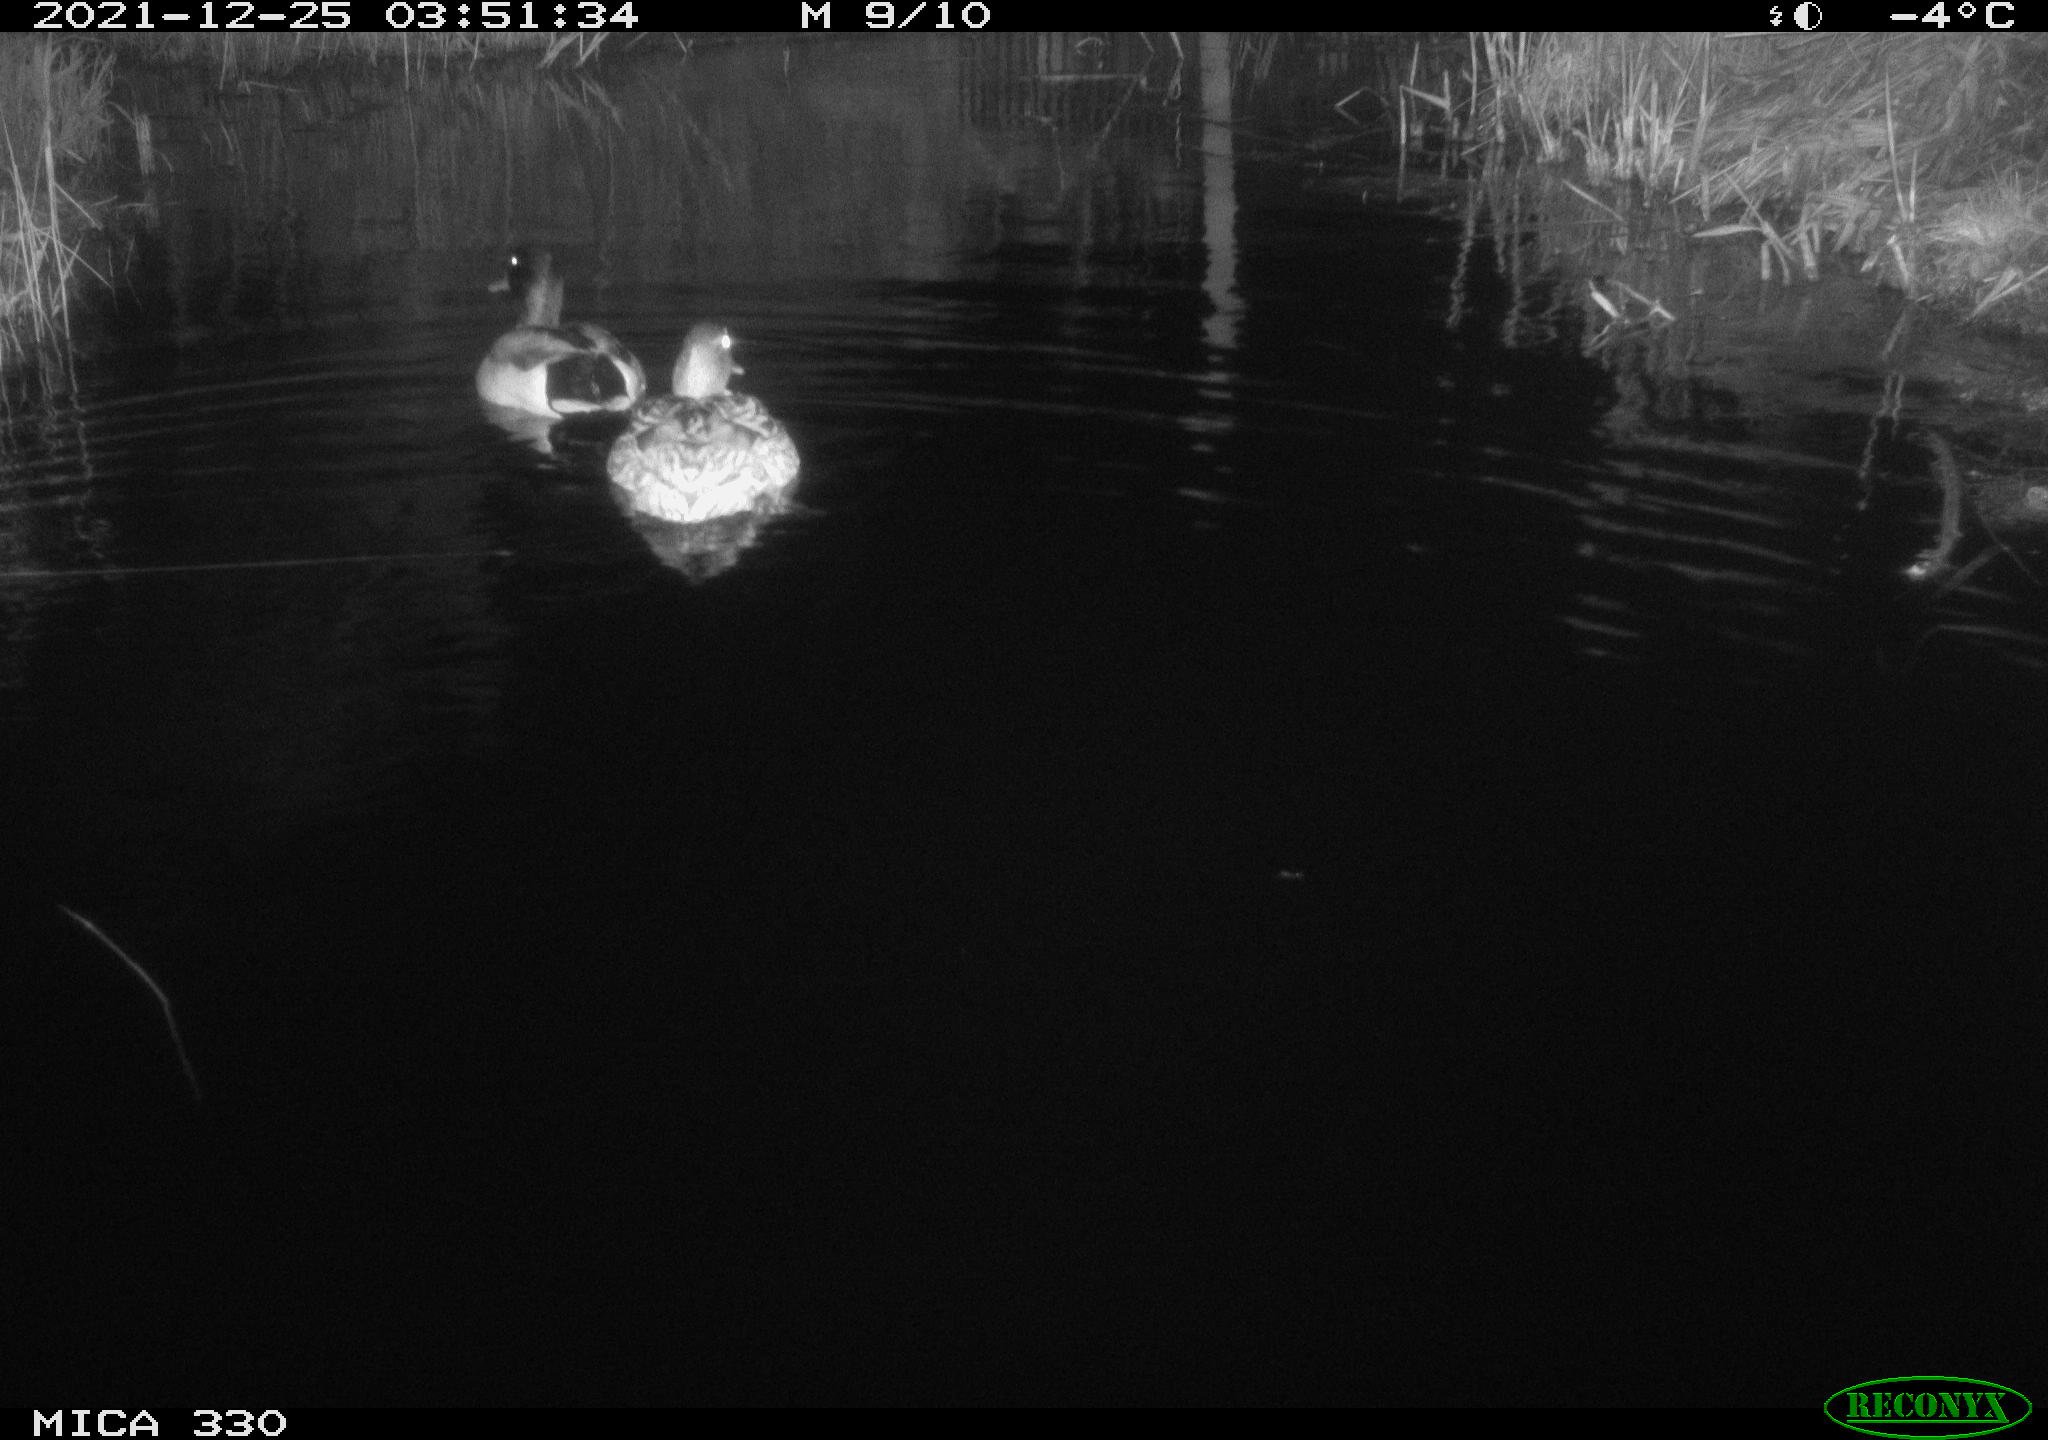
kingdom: Animalia
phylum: Chordata
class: Aves
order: Anseriformes
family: Anatidae
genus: Anas
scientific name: Anas platyrhynchos
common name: Mallard
